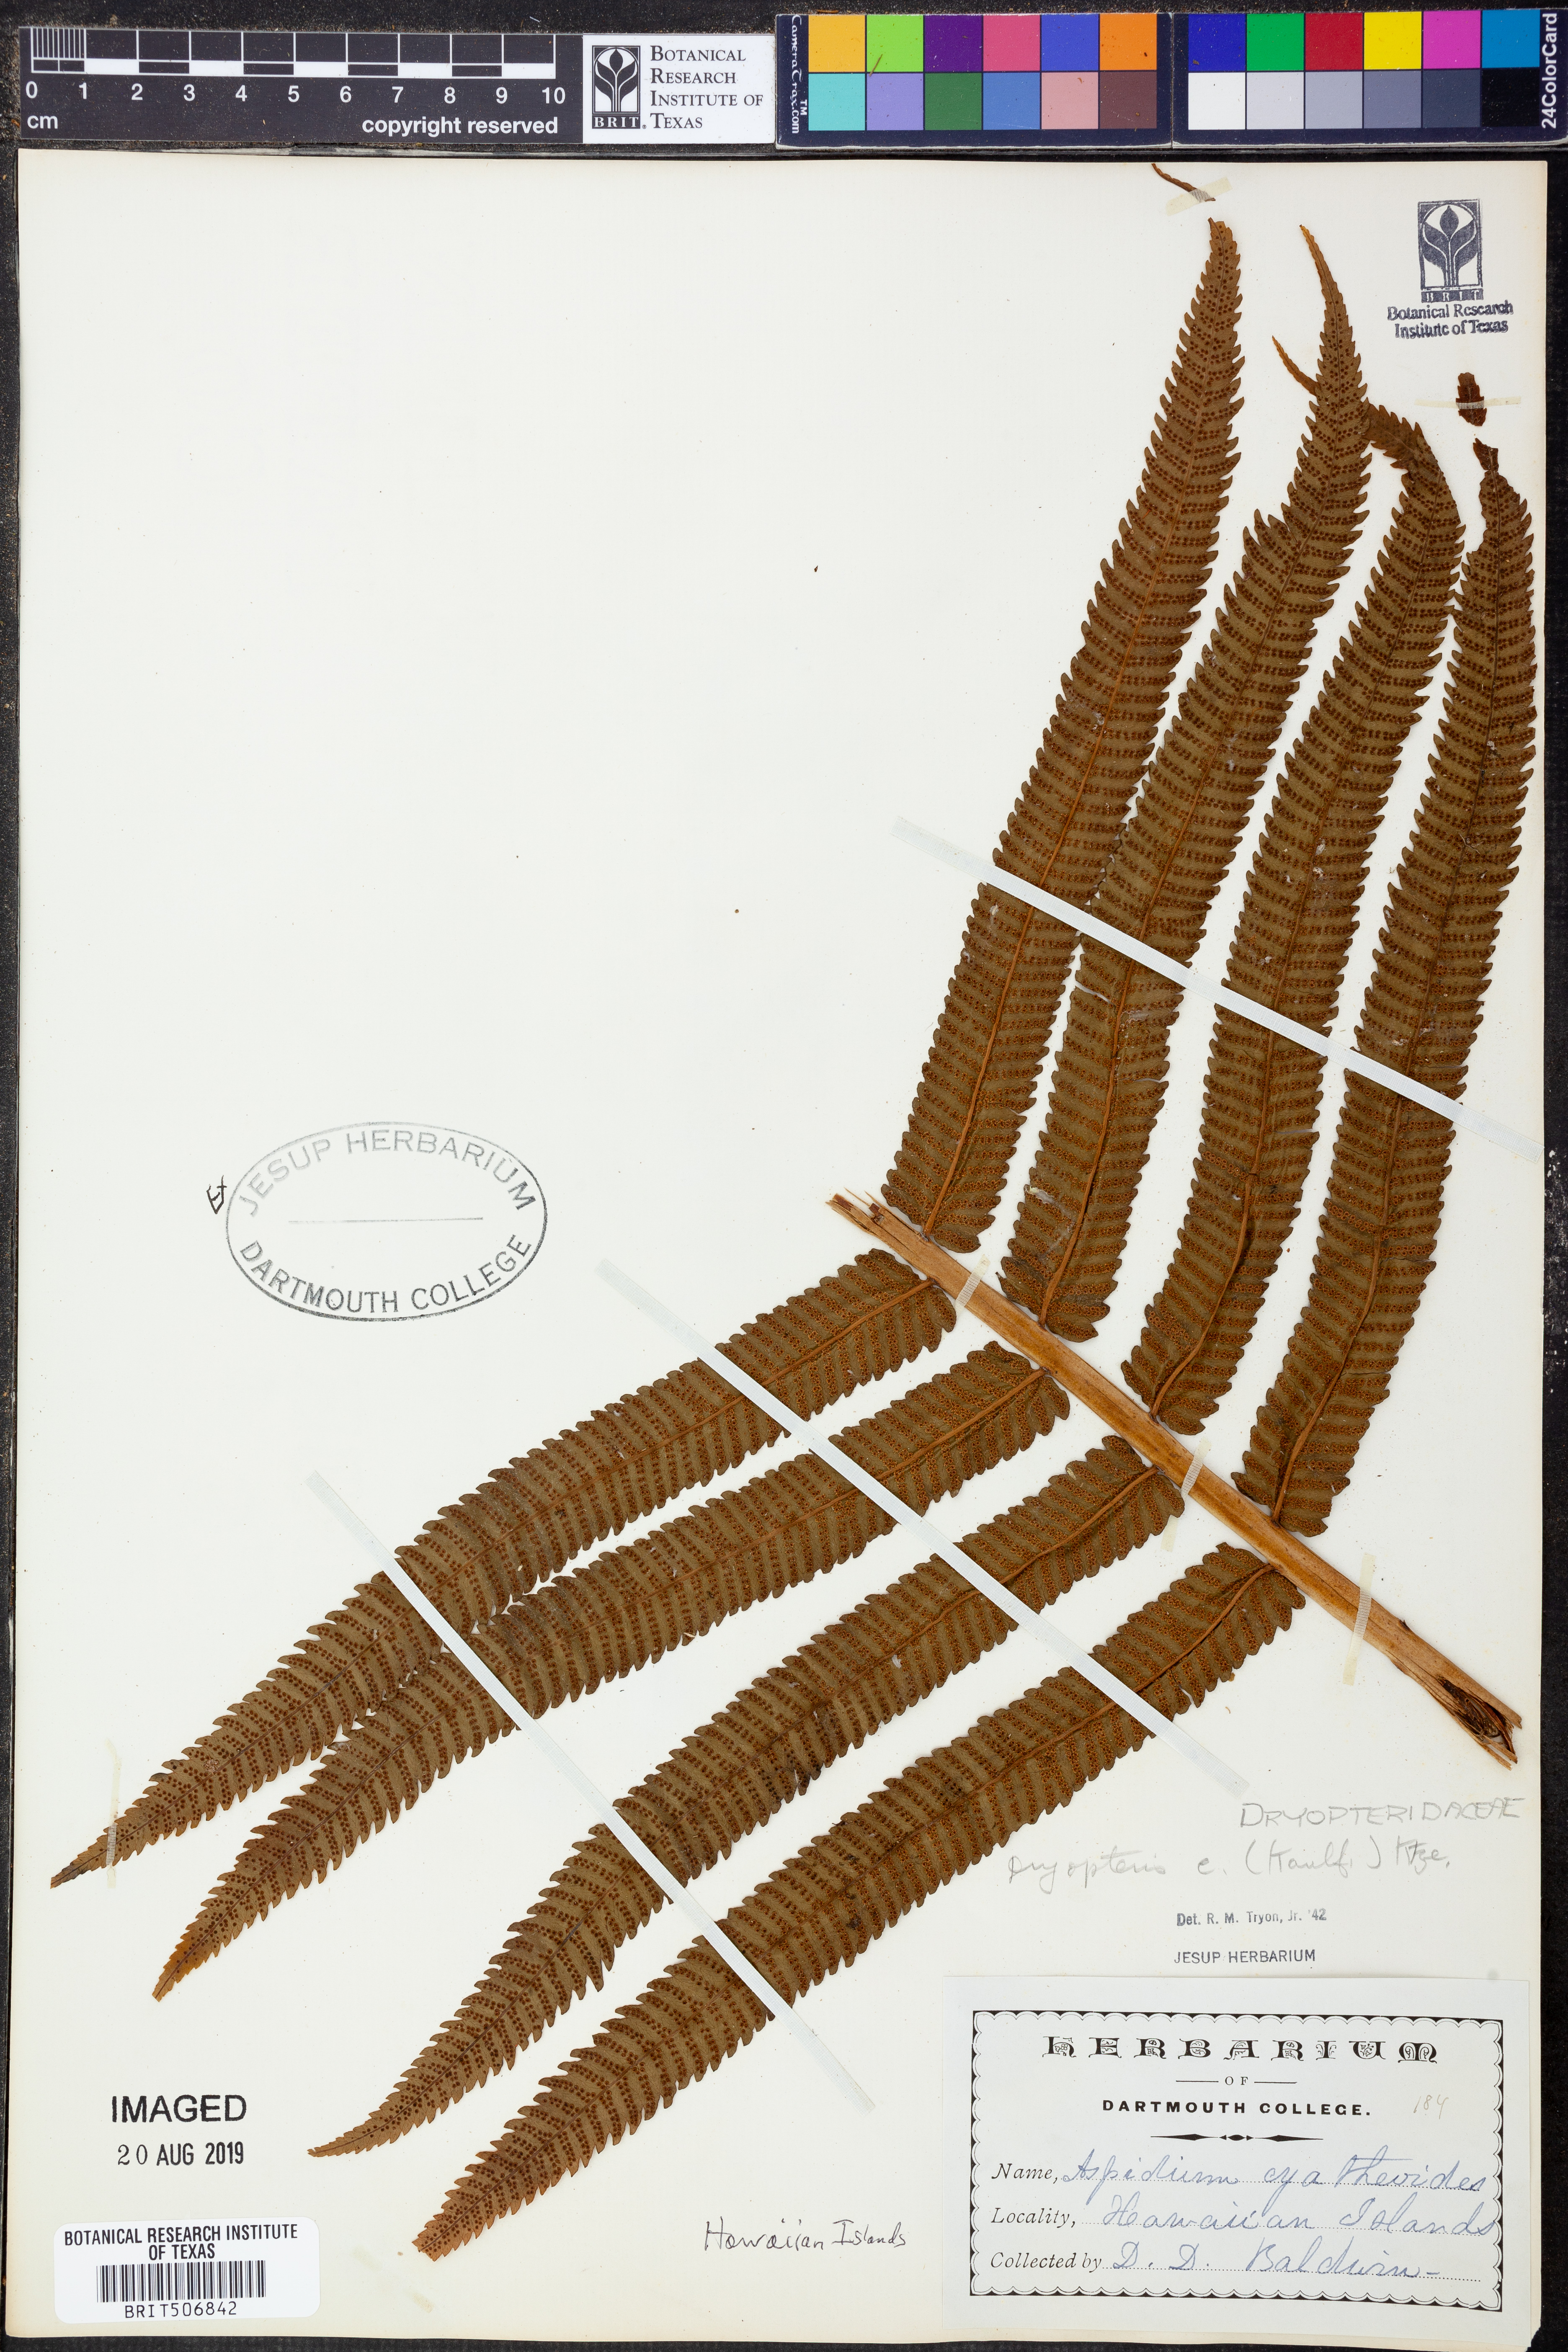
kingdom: Plantae
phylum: Tracheophyta
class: Polypodiopsida
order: Polypodiales
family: Thelypteridaceae
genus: Menisciopsis
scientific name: Menisciopsis cyatheoides
